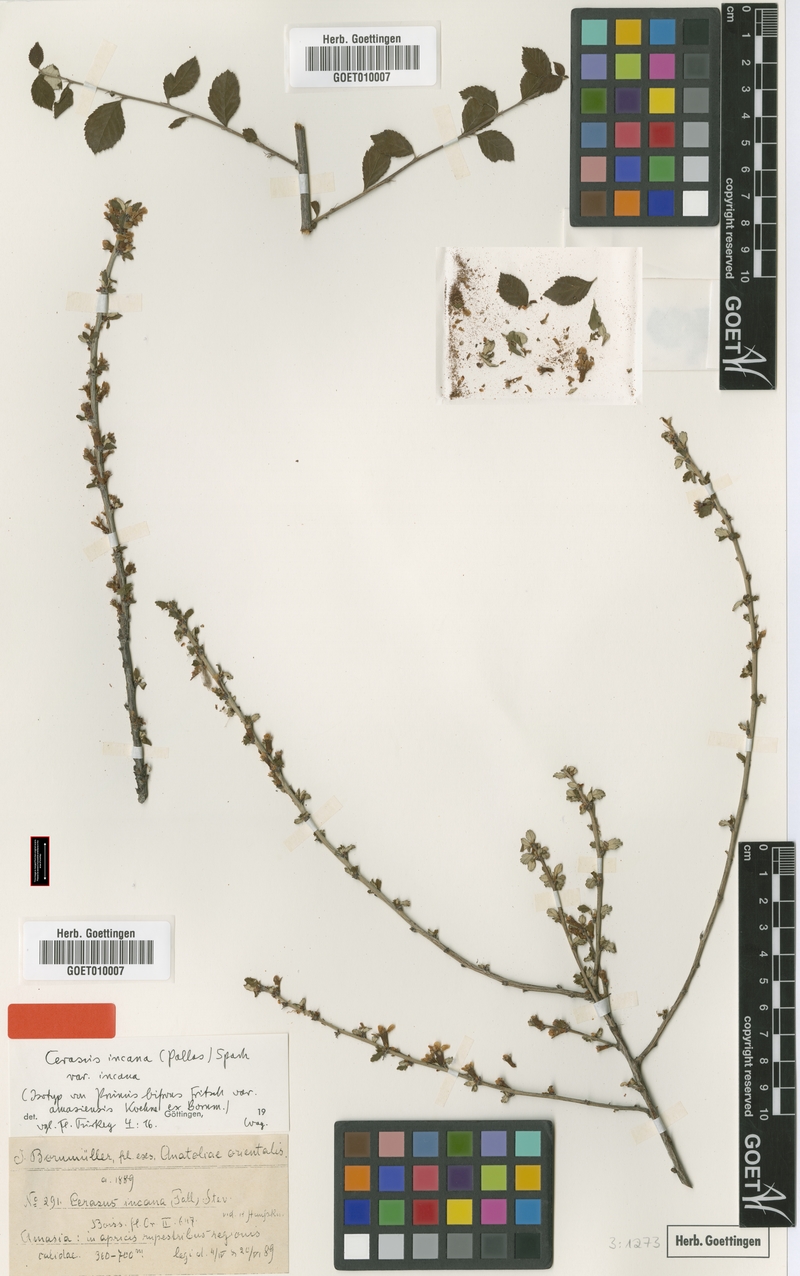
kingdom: Plantae
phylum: Tracheophyta
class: Magnoliopsida
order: Rosales
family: Rosaceae
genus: Prunus
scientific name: Prunus incana
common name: Willow cherry
